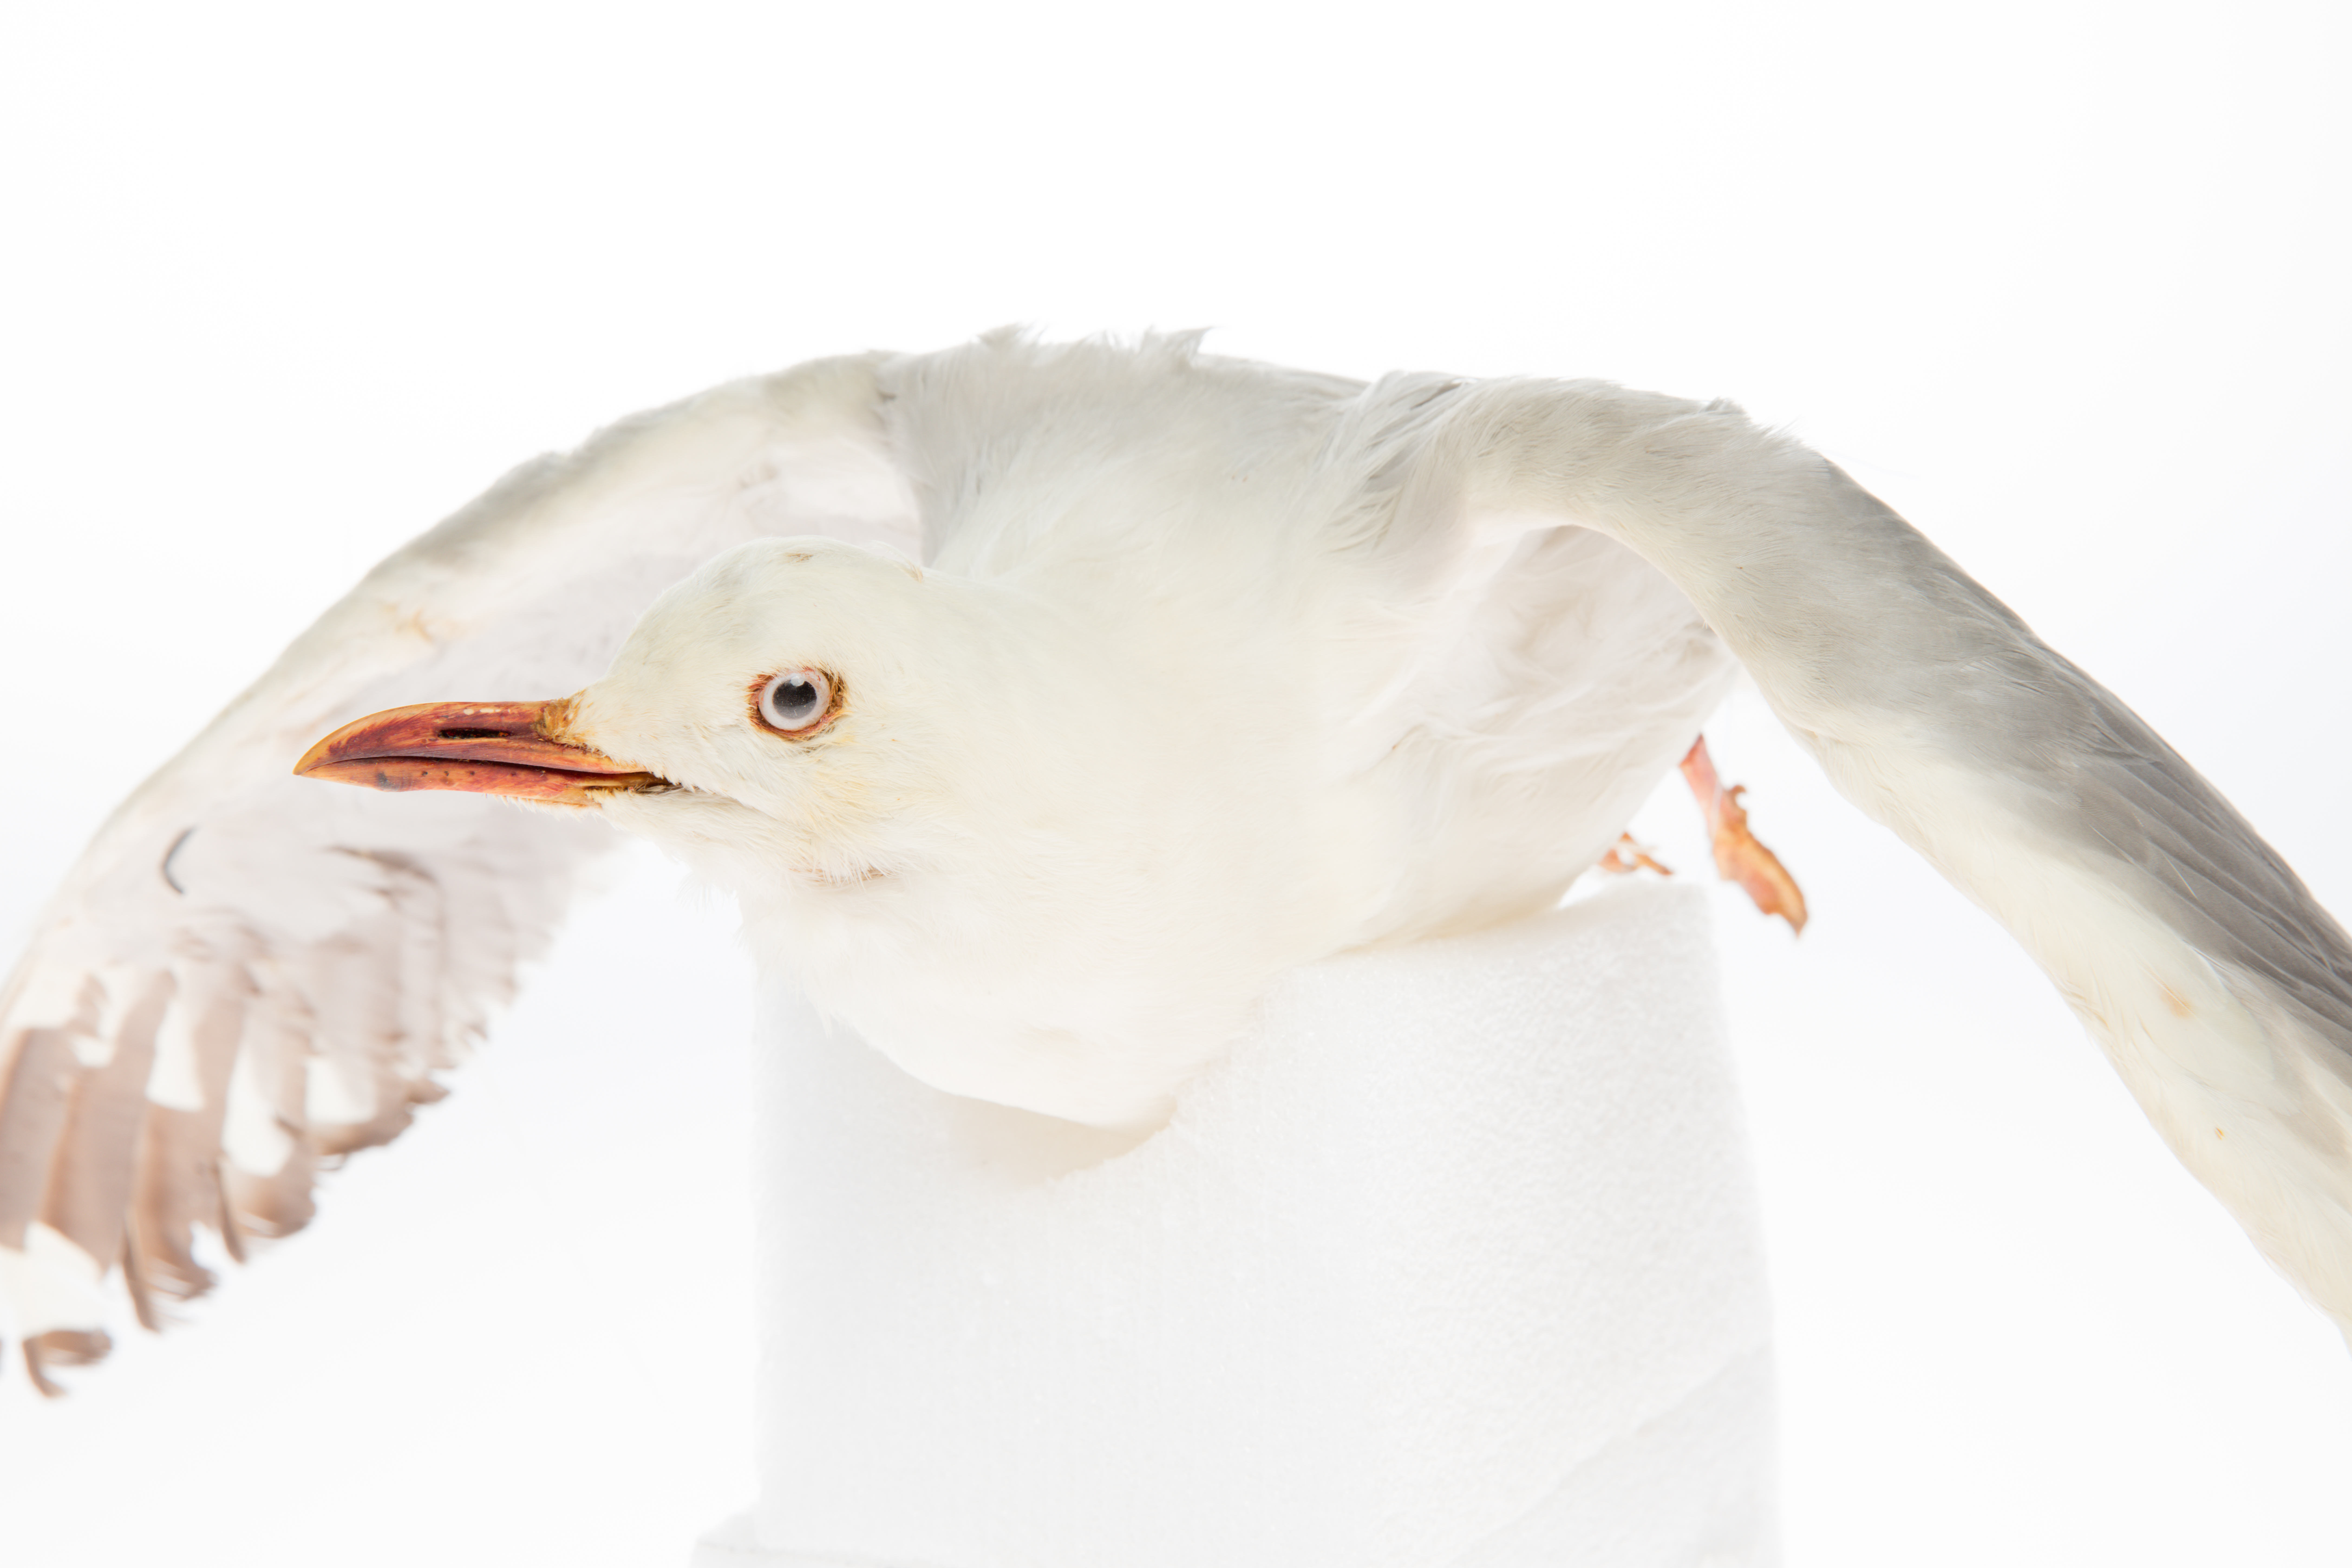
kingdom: Animalia
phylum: Chordata
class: Aves
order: Charadriiformes
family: Laridae
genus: Chroicocephalus
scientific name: Chroicocephalus novaehollandiae
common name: Silver gull
